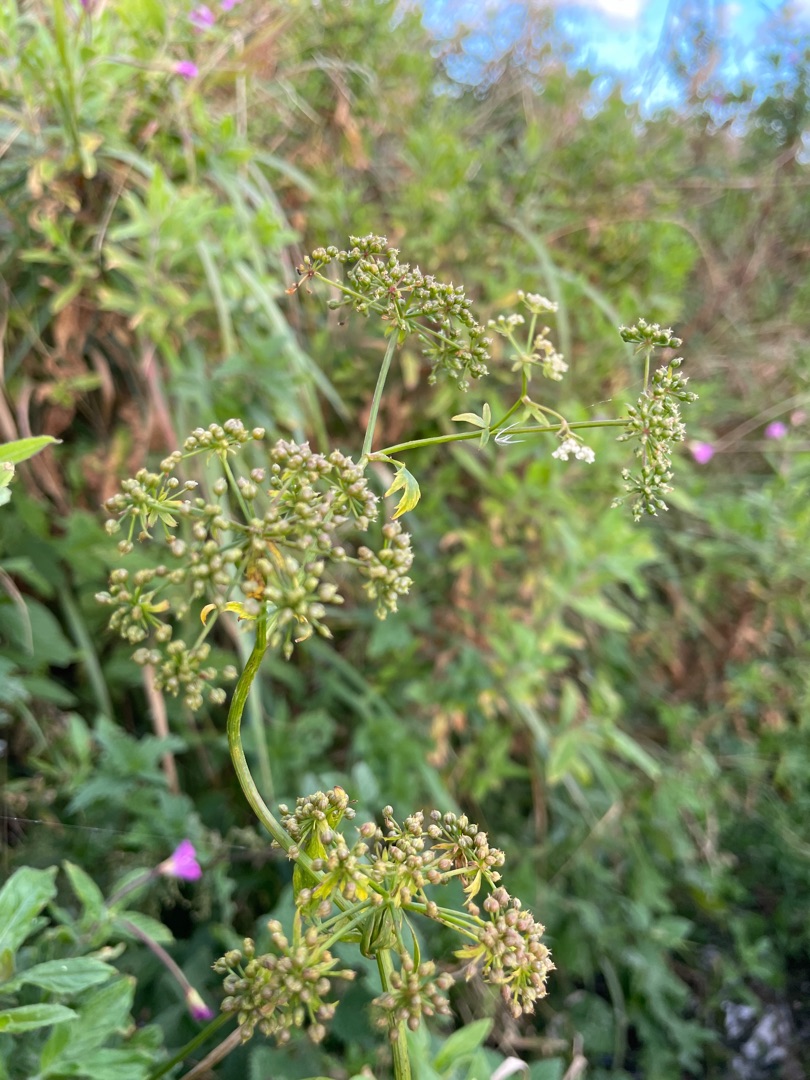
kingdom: Plantae
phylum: Tracheophyta
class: Magnoliopsida
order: Apiales
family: Apiaceae
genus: Berula
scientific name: Berula erecta
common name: Sideskærm
